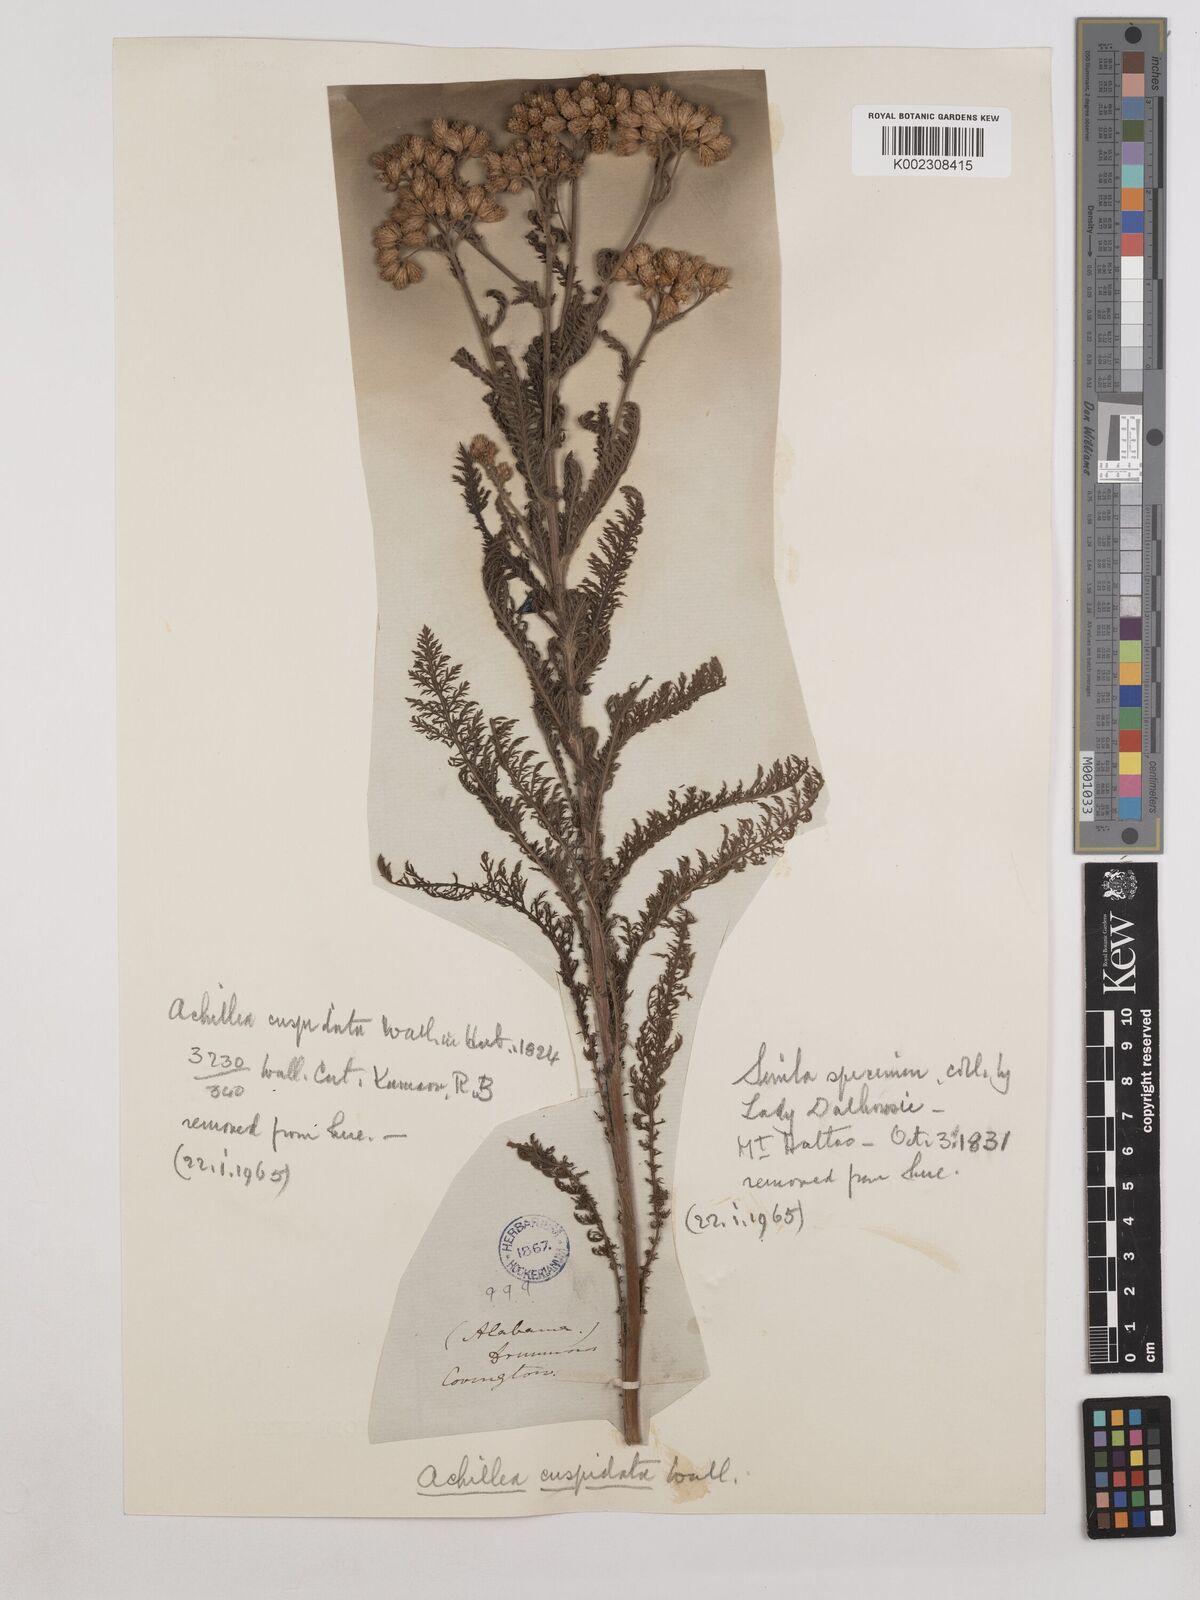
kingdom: Plantae
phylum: Tracheophyta
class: Magnoliopsida
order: Asterales
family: Asteraceae
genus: Achillea
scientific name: Achillea millefolium
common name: Yarrow
